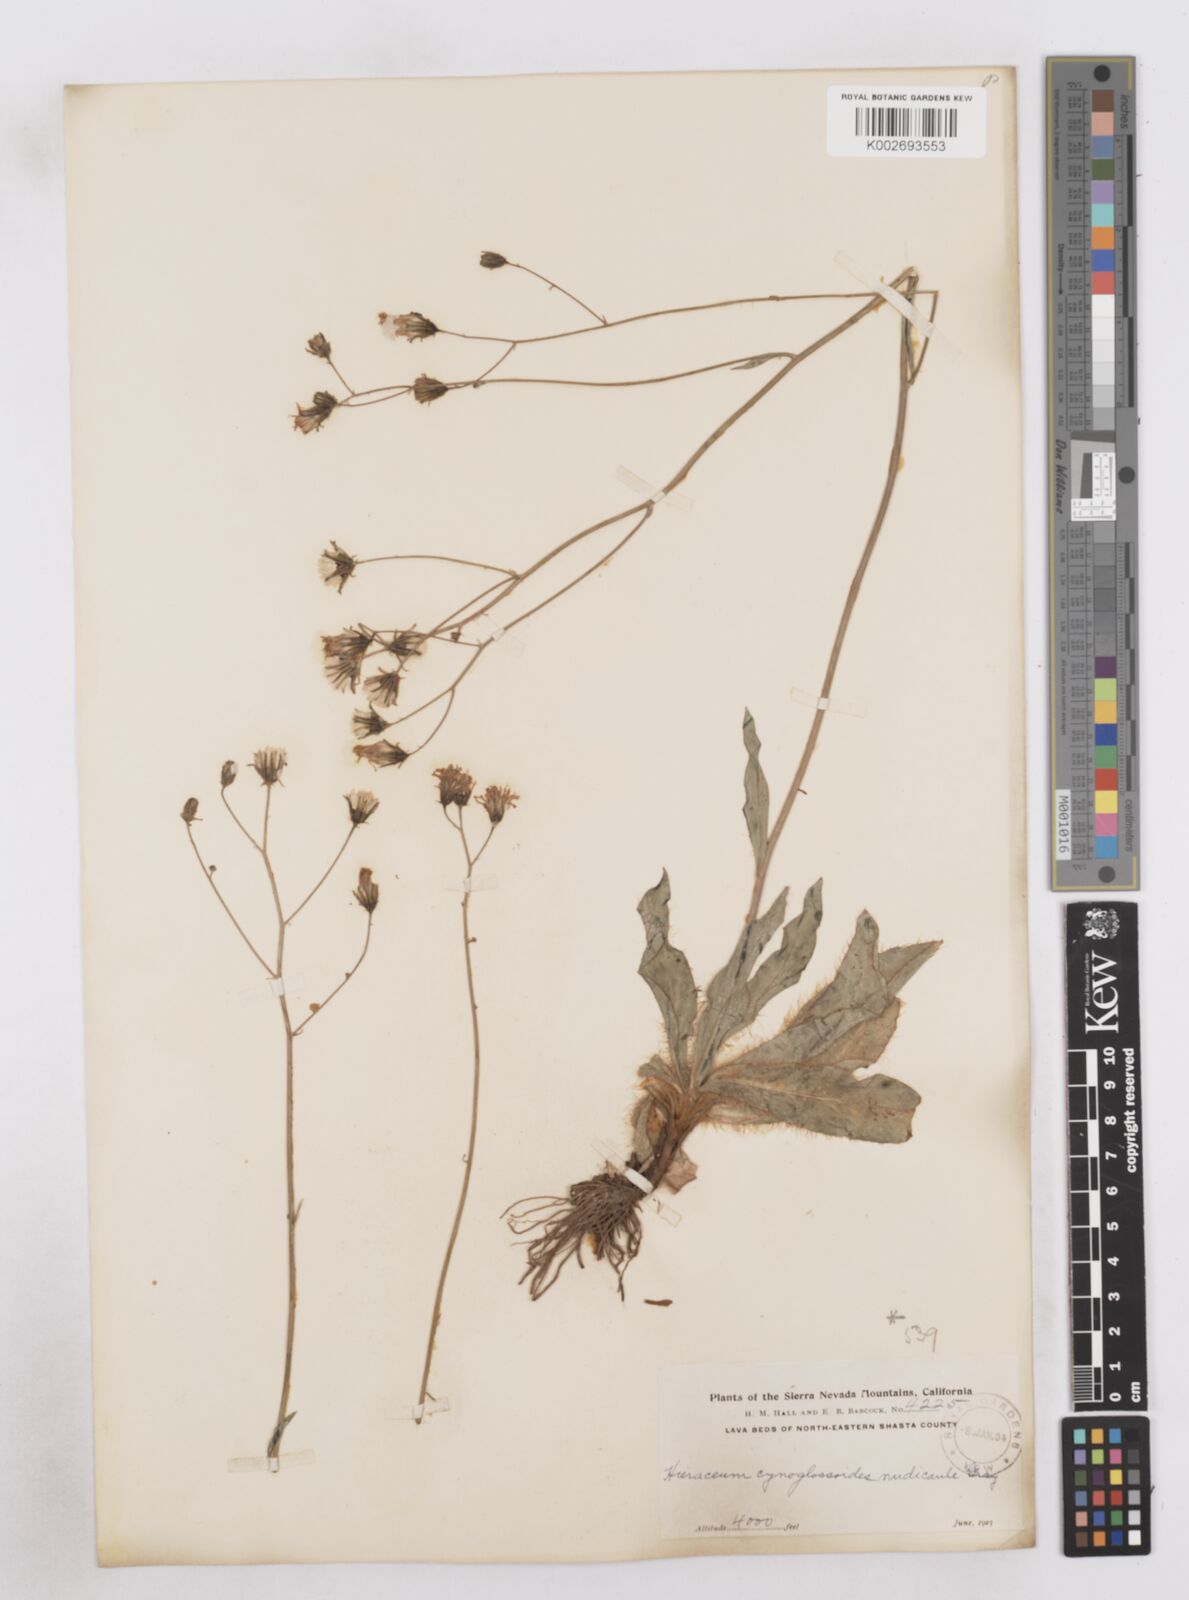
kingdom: Plantae
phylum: Tracheophyta
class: Magnoliopsida
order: Asterales
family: Asteraceae
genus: Hieracium
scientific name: Hieracium
